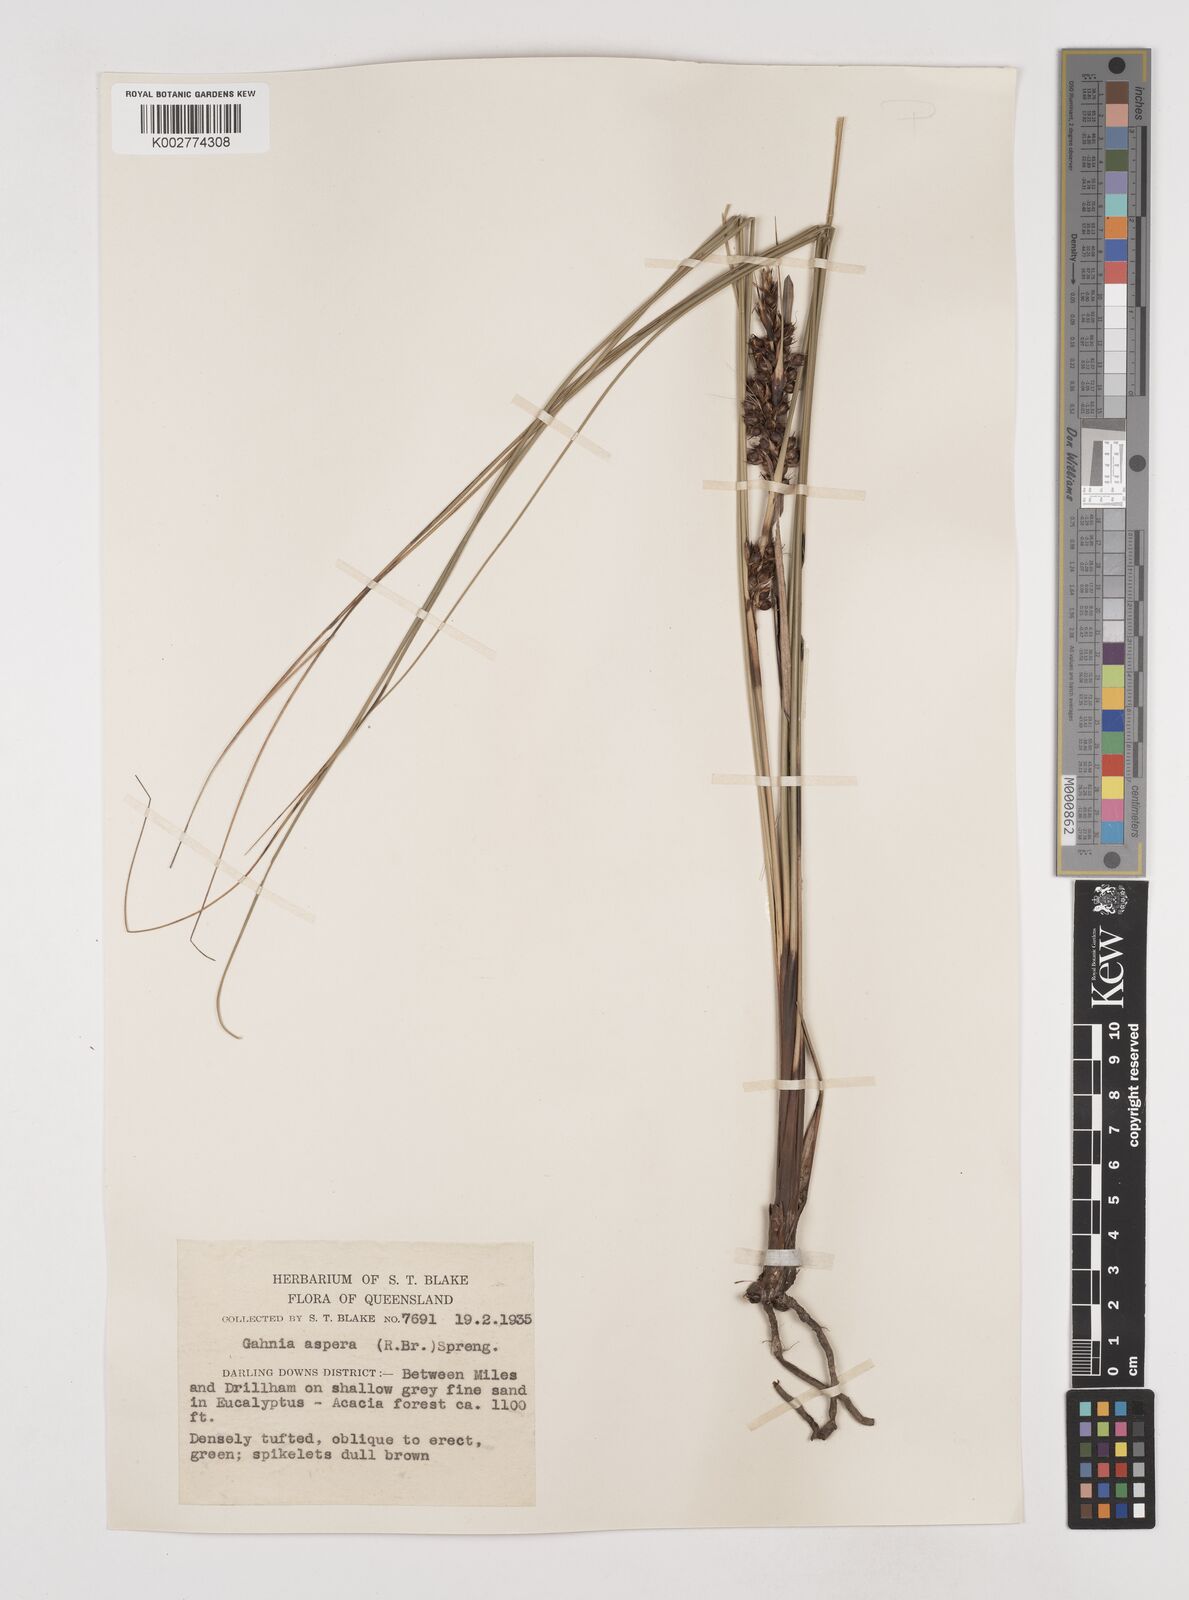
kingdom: Plantae
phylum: Tracheophyta
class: Liliopsida
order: Poales
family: Cyperaceae
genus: Gahnia
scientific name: Gahnia aspera
